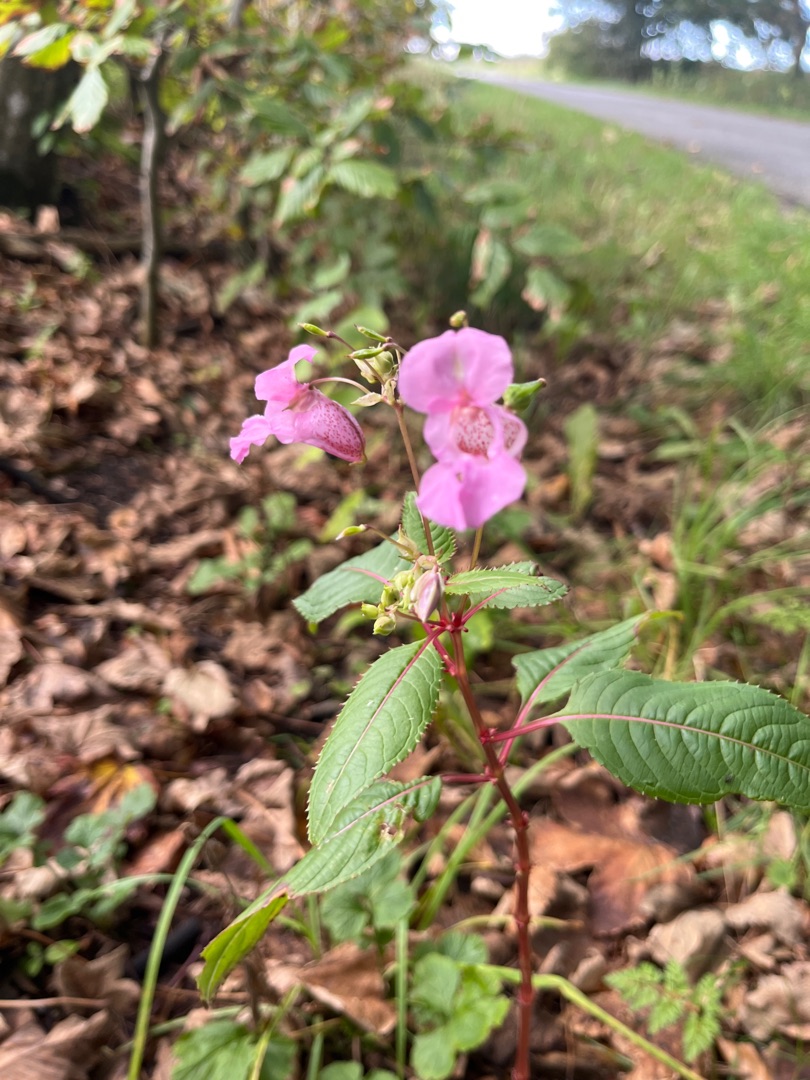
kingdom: Plantae
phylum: Tracheophyta
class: Magnoliopsida
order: Ericales
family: Balsaminaceae
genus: Impatiens
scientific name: Impatiens glandulifera
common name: Kæmpe-balsamin
